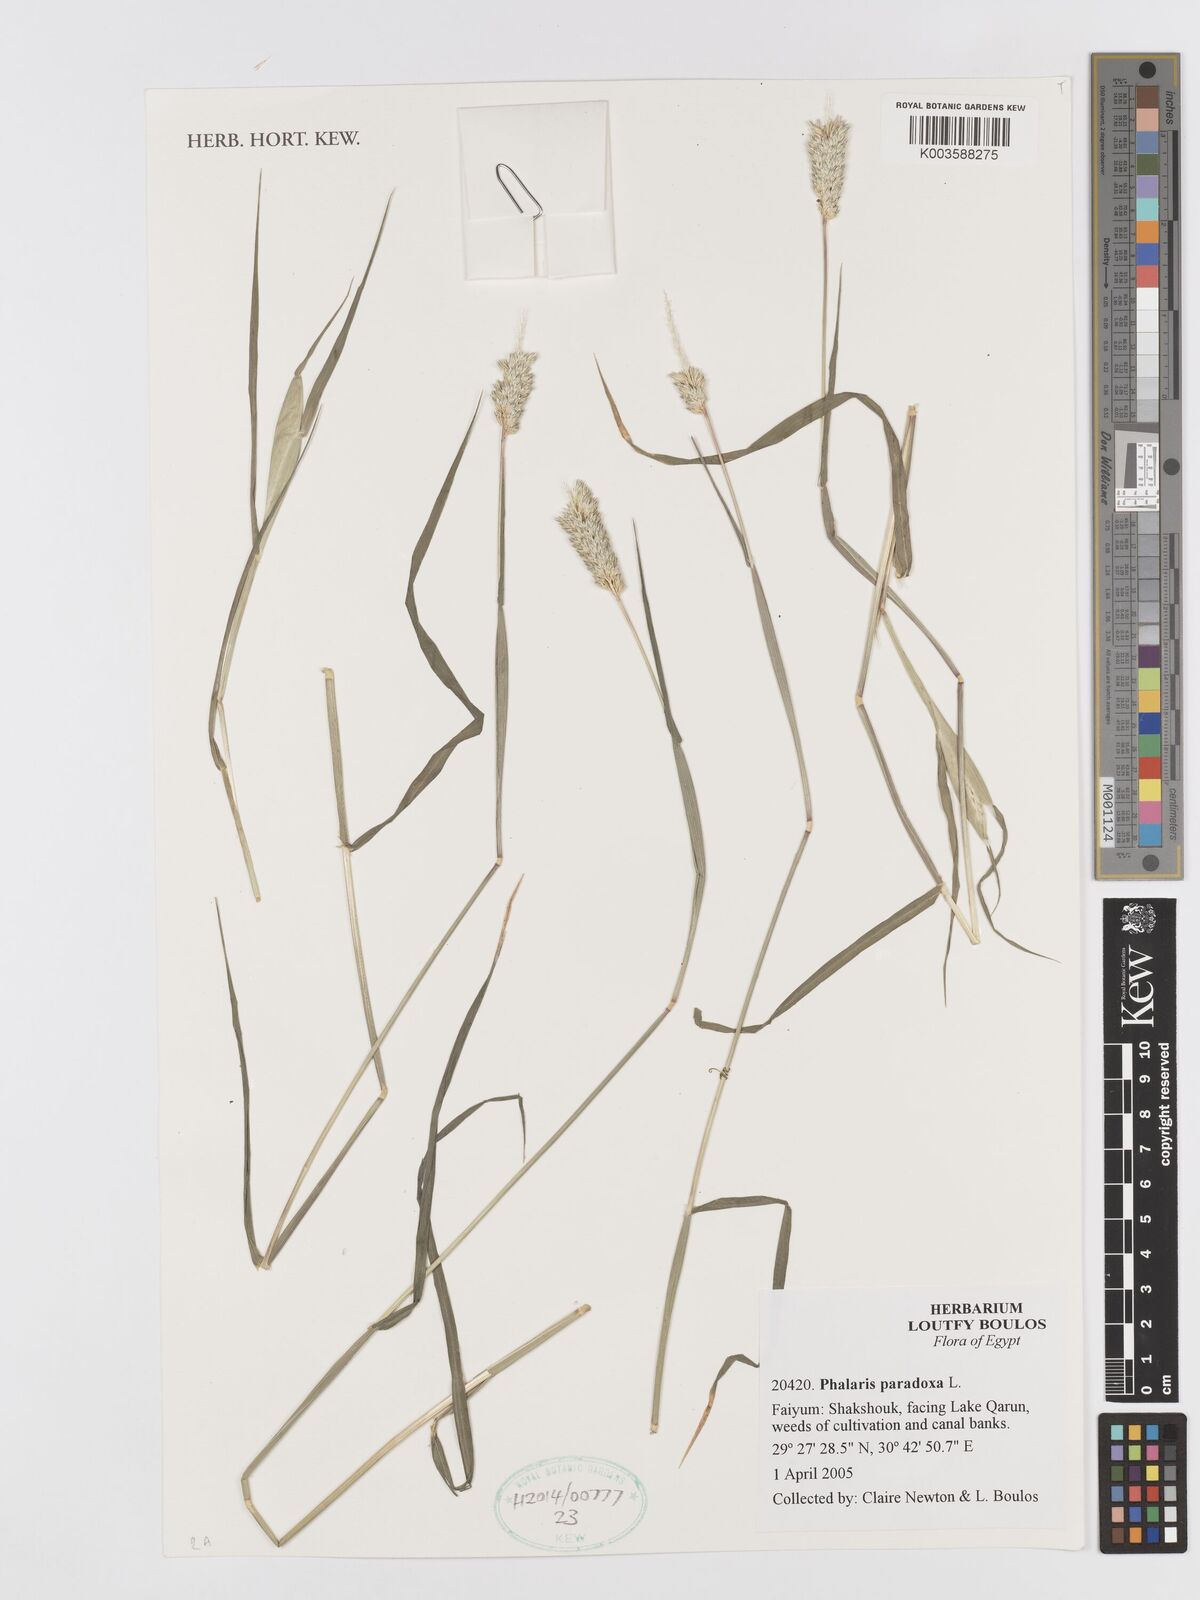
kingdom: Plantae
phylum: Tracheophyta
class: Liliopsida
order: Poales
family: Poaceae
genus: Phalaris
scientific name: Phalaris paradoxa
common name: Awned canary-grass
